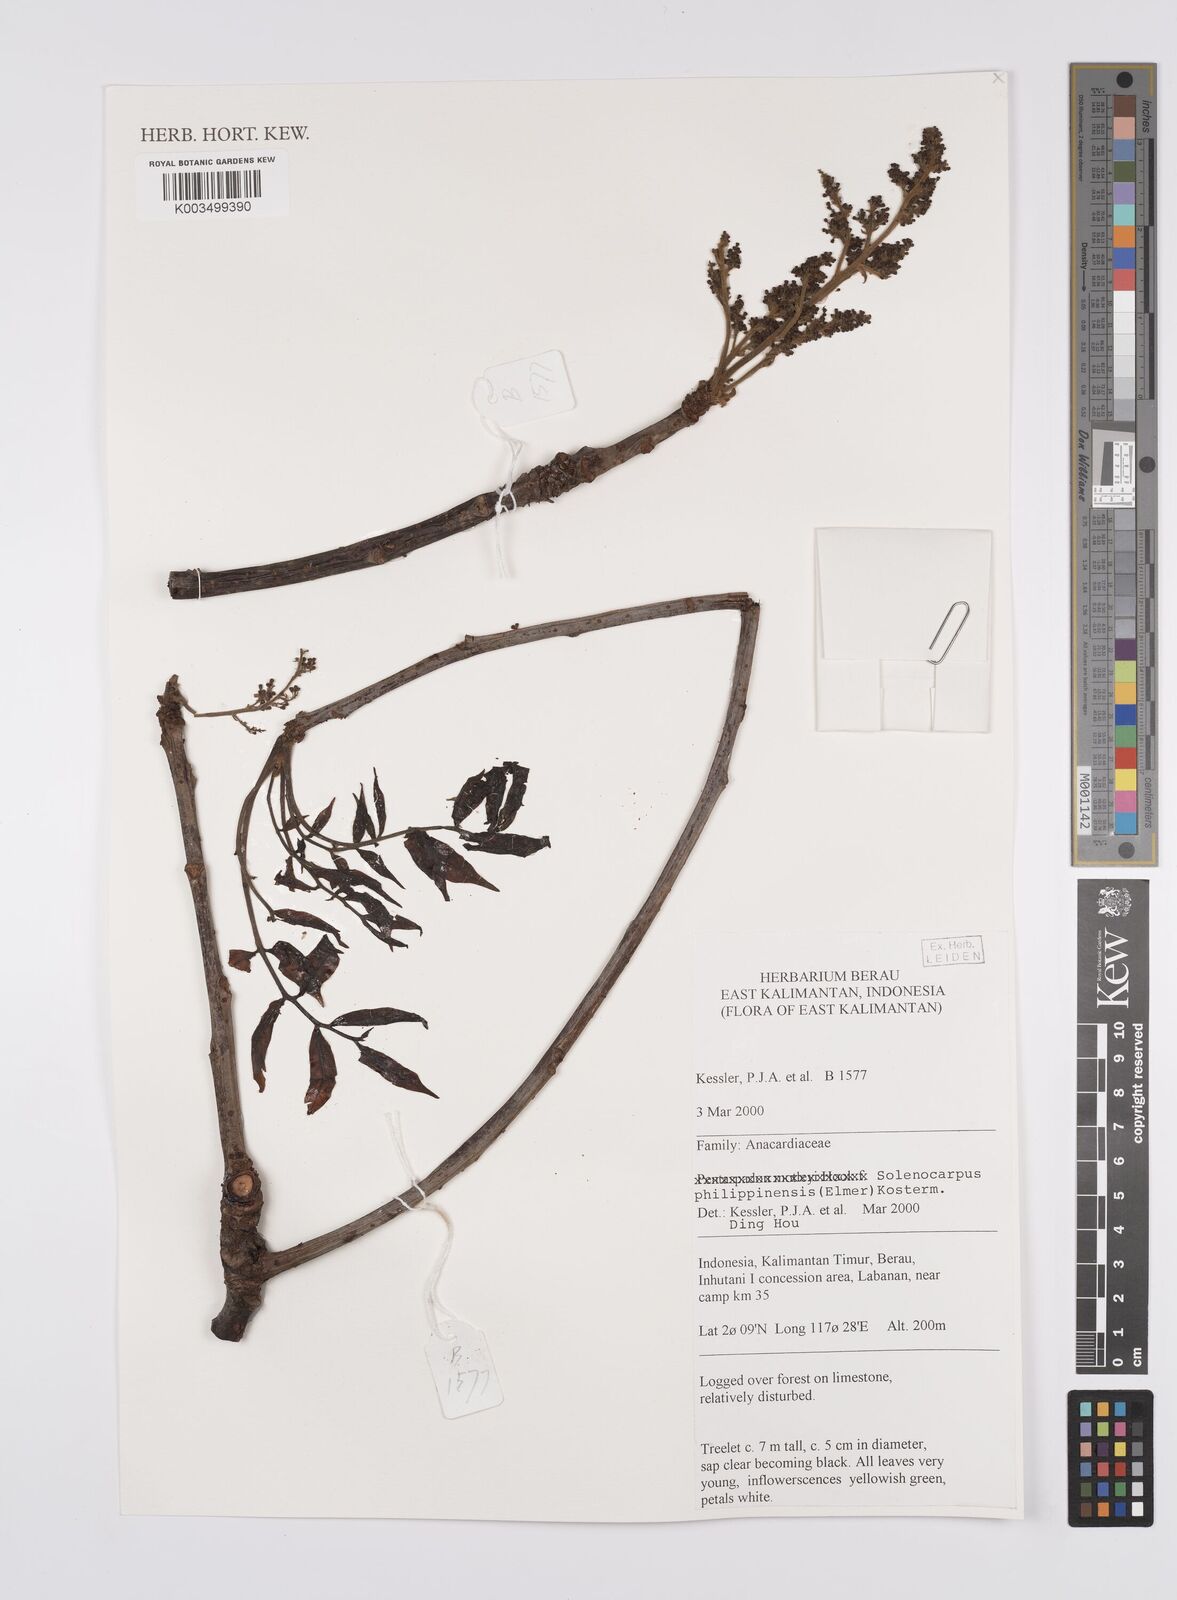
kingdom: Plantae
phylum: Tracheophyta
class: Magnoliopsida
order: Sapindales
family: Anacardiaceae
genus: Spondias
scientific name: Spondias philippinensis
